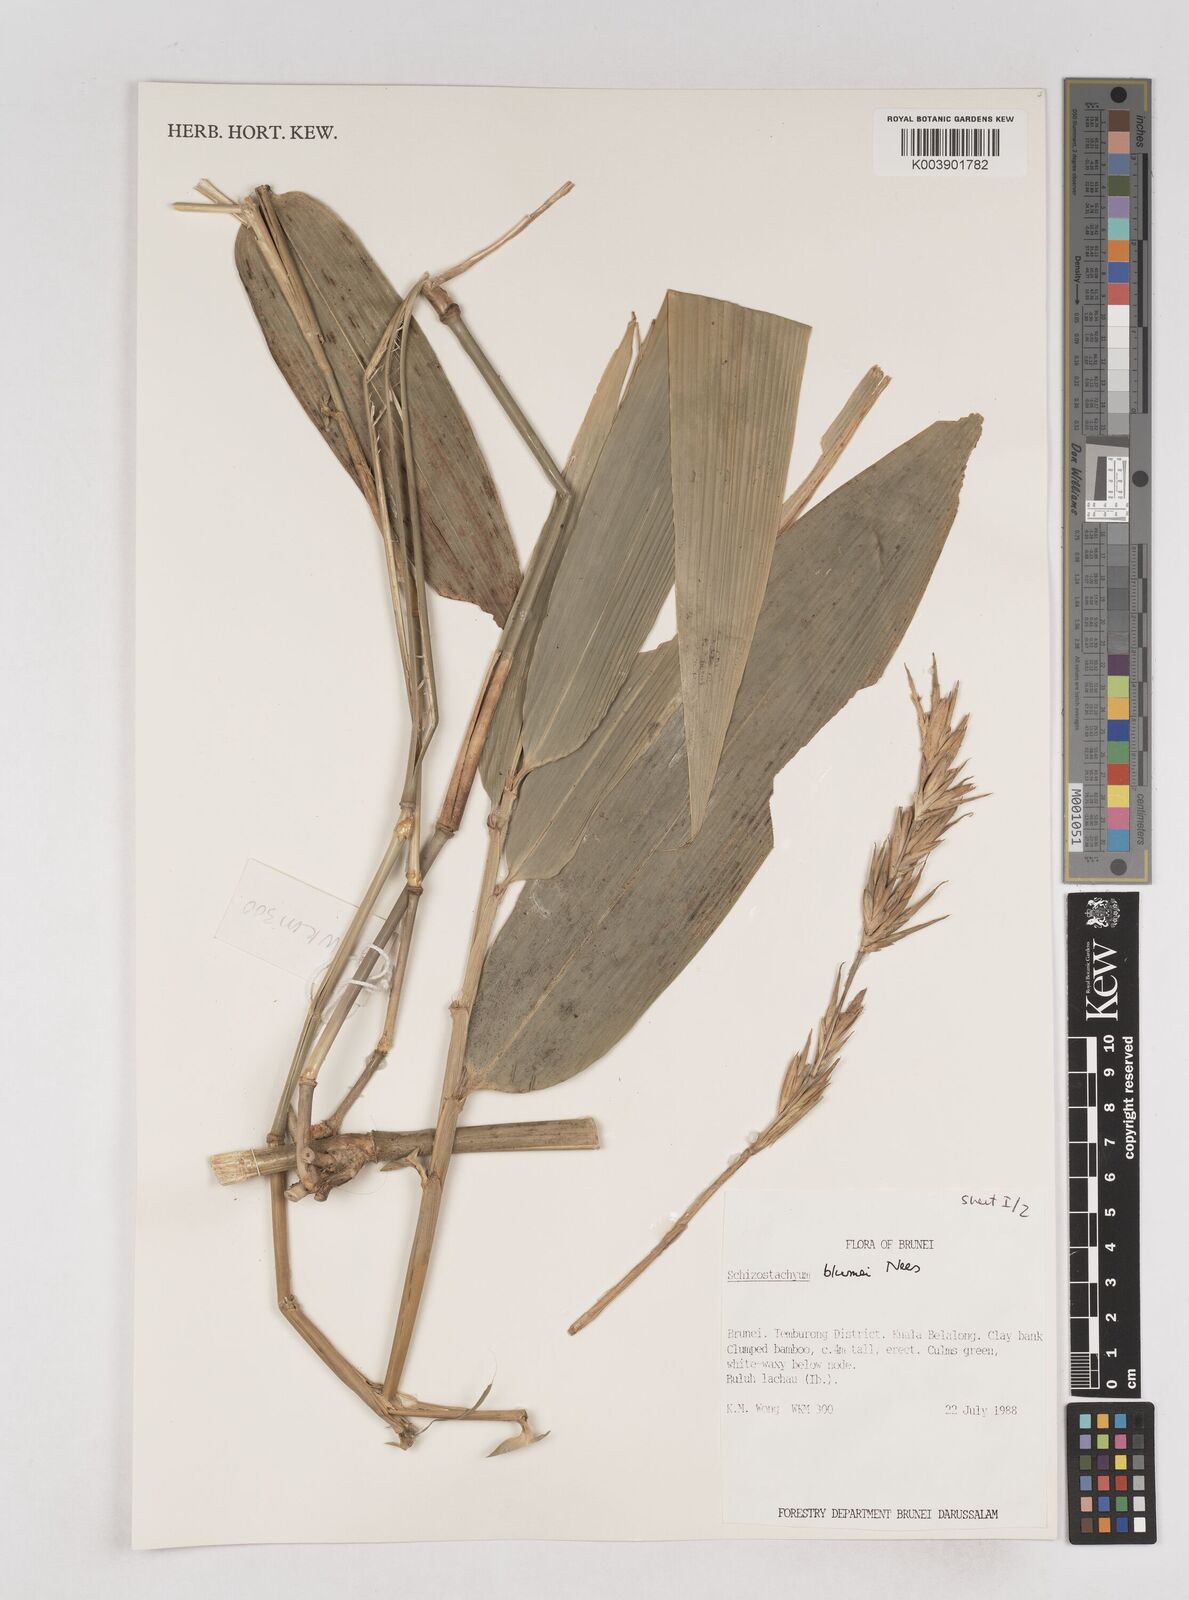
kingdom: Plantae
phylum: Tracheophyta
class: Liliopsida
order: Poales
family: Poaceae
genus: Schizostachyum
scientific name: Schizostachyum blumei
